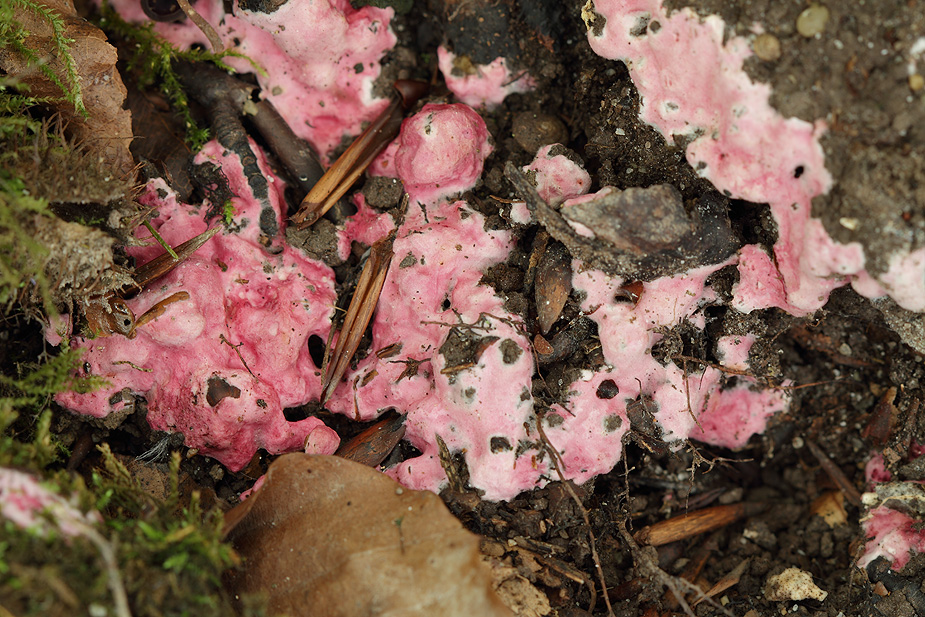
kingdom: Fungi
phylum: Ascomycota
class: Sordariomycetes
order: Hypocreales
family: Hypocreaceae
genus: Hypomyces
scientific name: Hypomyces rosellus
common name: rosa snylteskorpe
